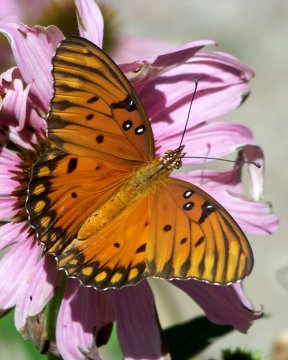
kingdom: Animalia
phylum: Arthropoda
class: Insecta
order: Lepidoptera
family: Nymphalidae
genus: Dione
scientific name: Dione vanillae
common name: Gulf Fritillary
